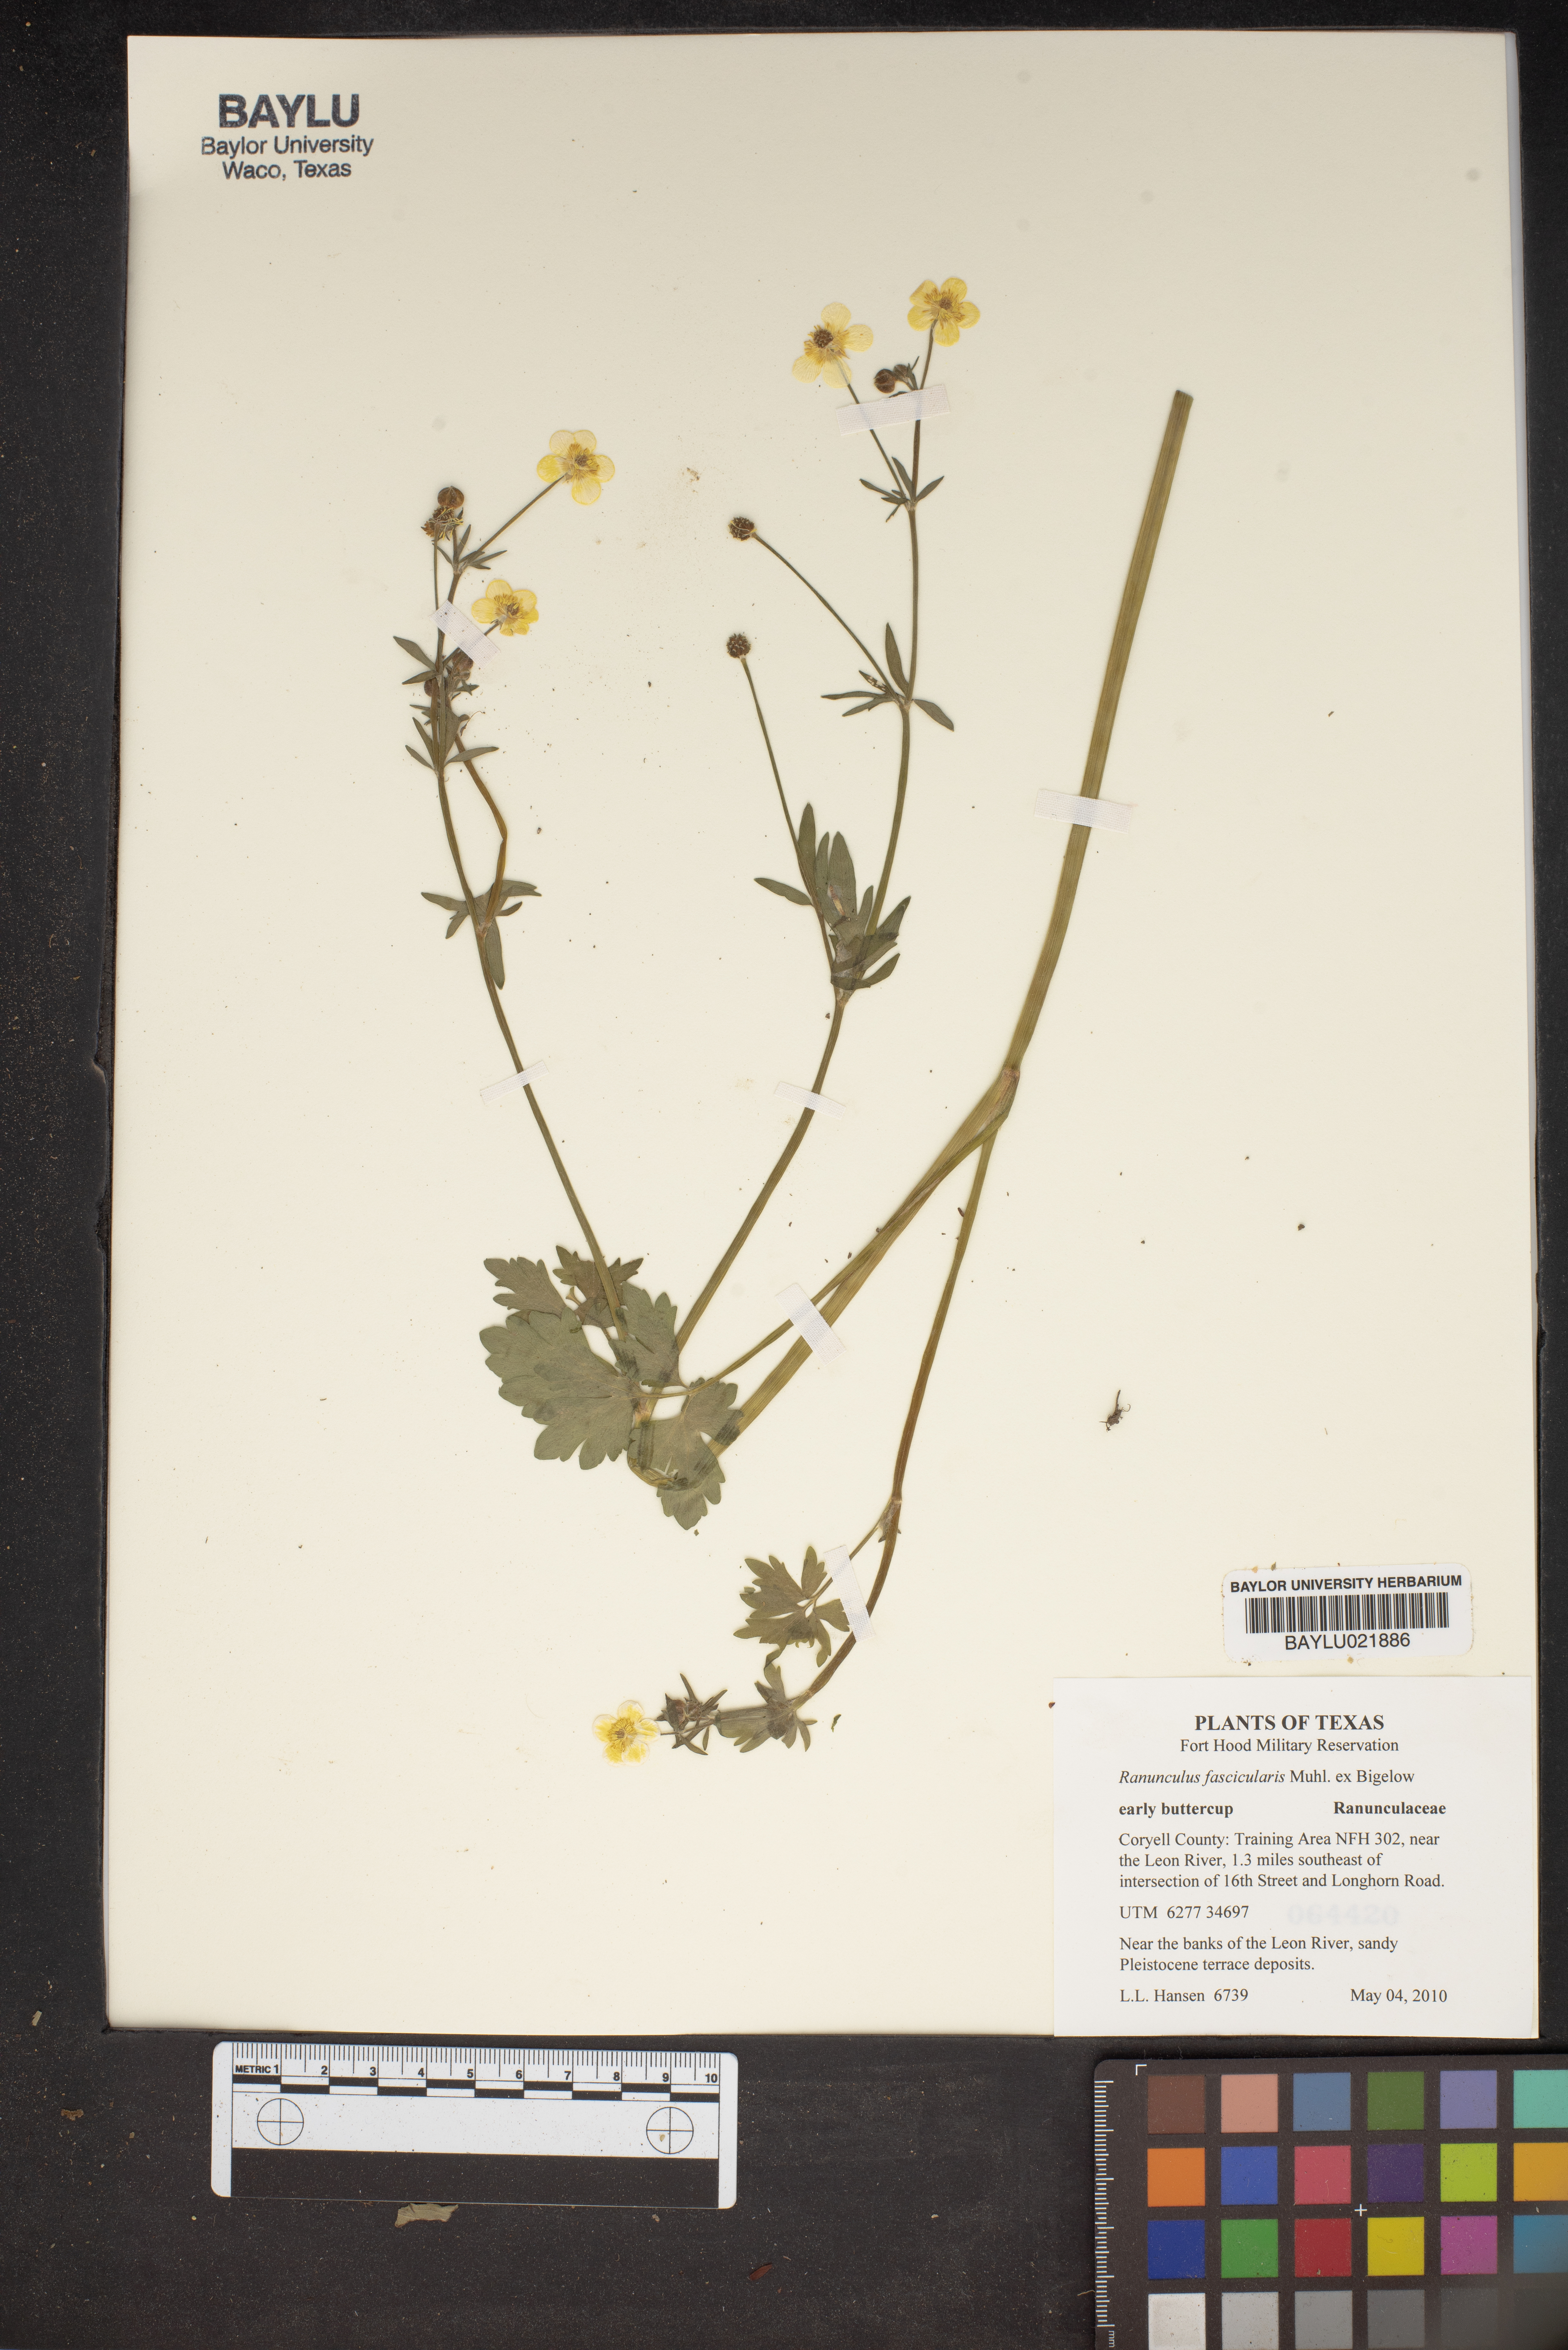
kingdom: Plantae
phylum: Tracheophyta
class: Magnoliopsida
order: Ranunculales
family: Ranunculaceae
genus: Ranunculus
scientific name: Ranunculus fascicularis
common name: Early buttercup
